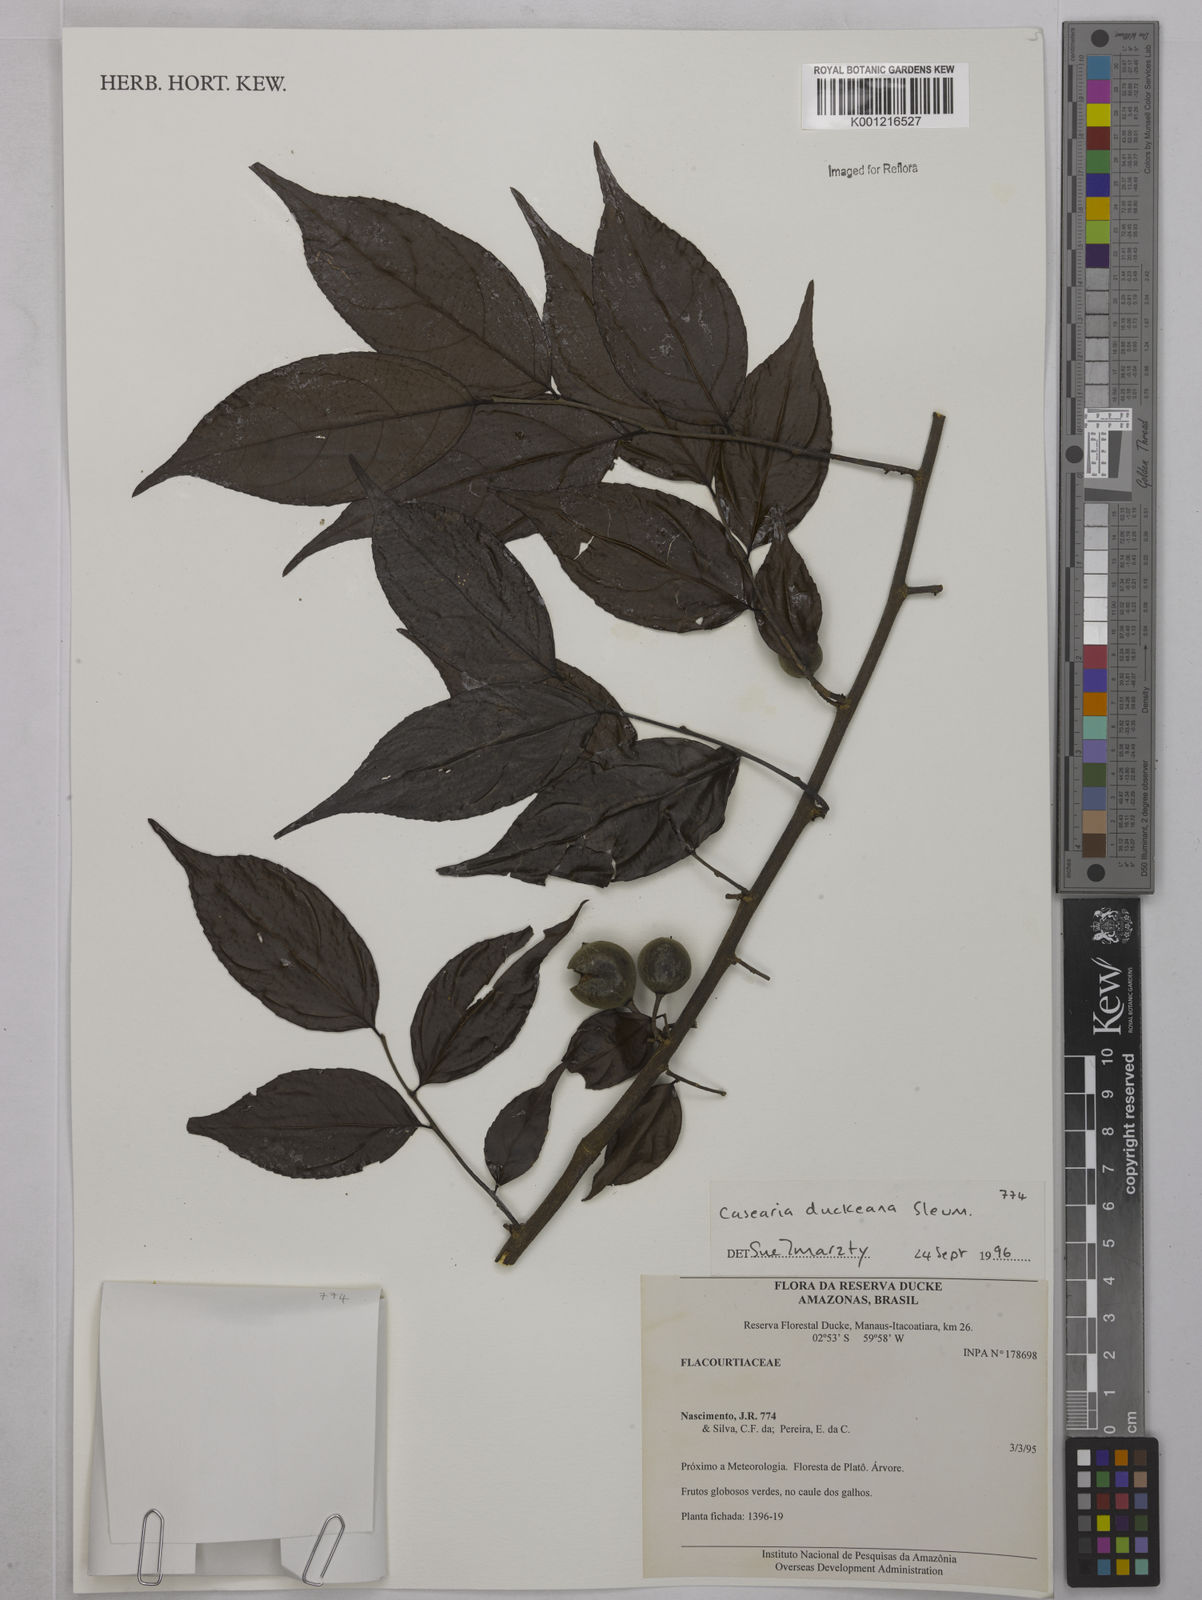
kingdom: Plantae
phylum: Tracheophyta
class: Magnoliopsida
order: Malpighiales
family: Salicaceae
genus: Casearia
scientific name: Casearia duckeana
